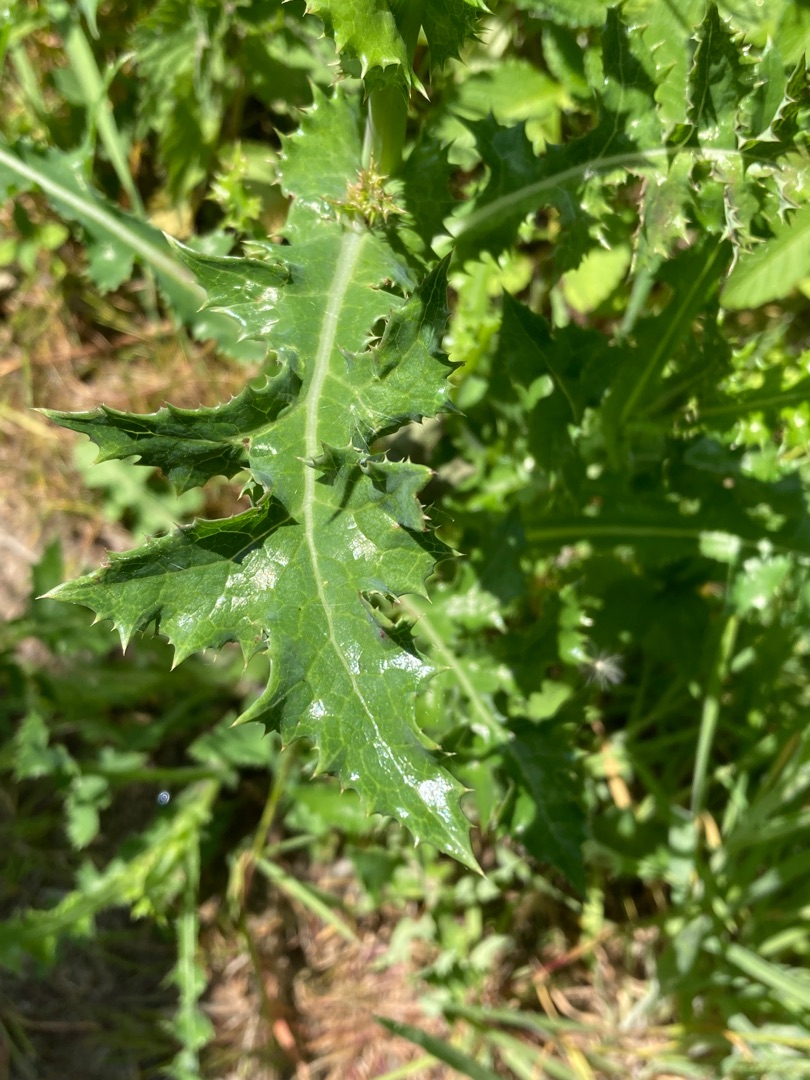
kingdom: Plantae
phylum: Tracheophyta
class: Magnoliopsida
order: Asterales
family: Asteraceae
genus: Sonchus
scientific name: Sonchus asper
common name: Ru svinemælk
